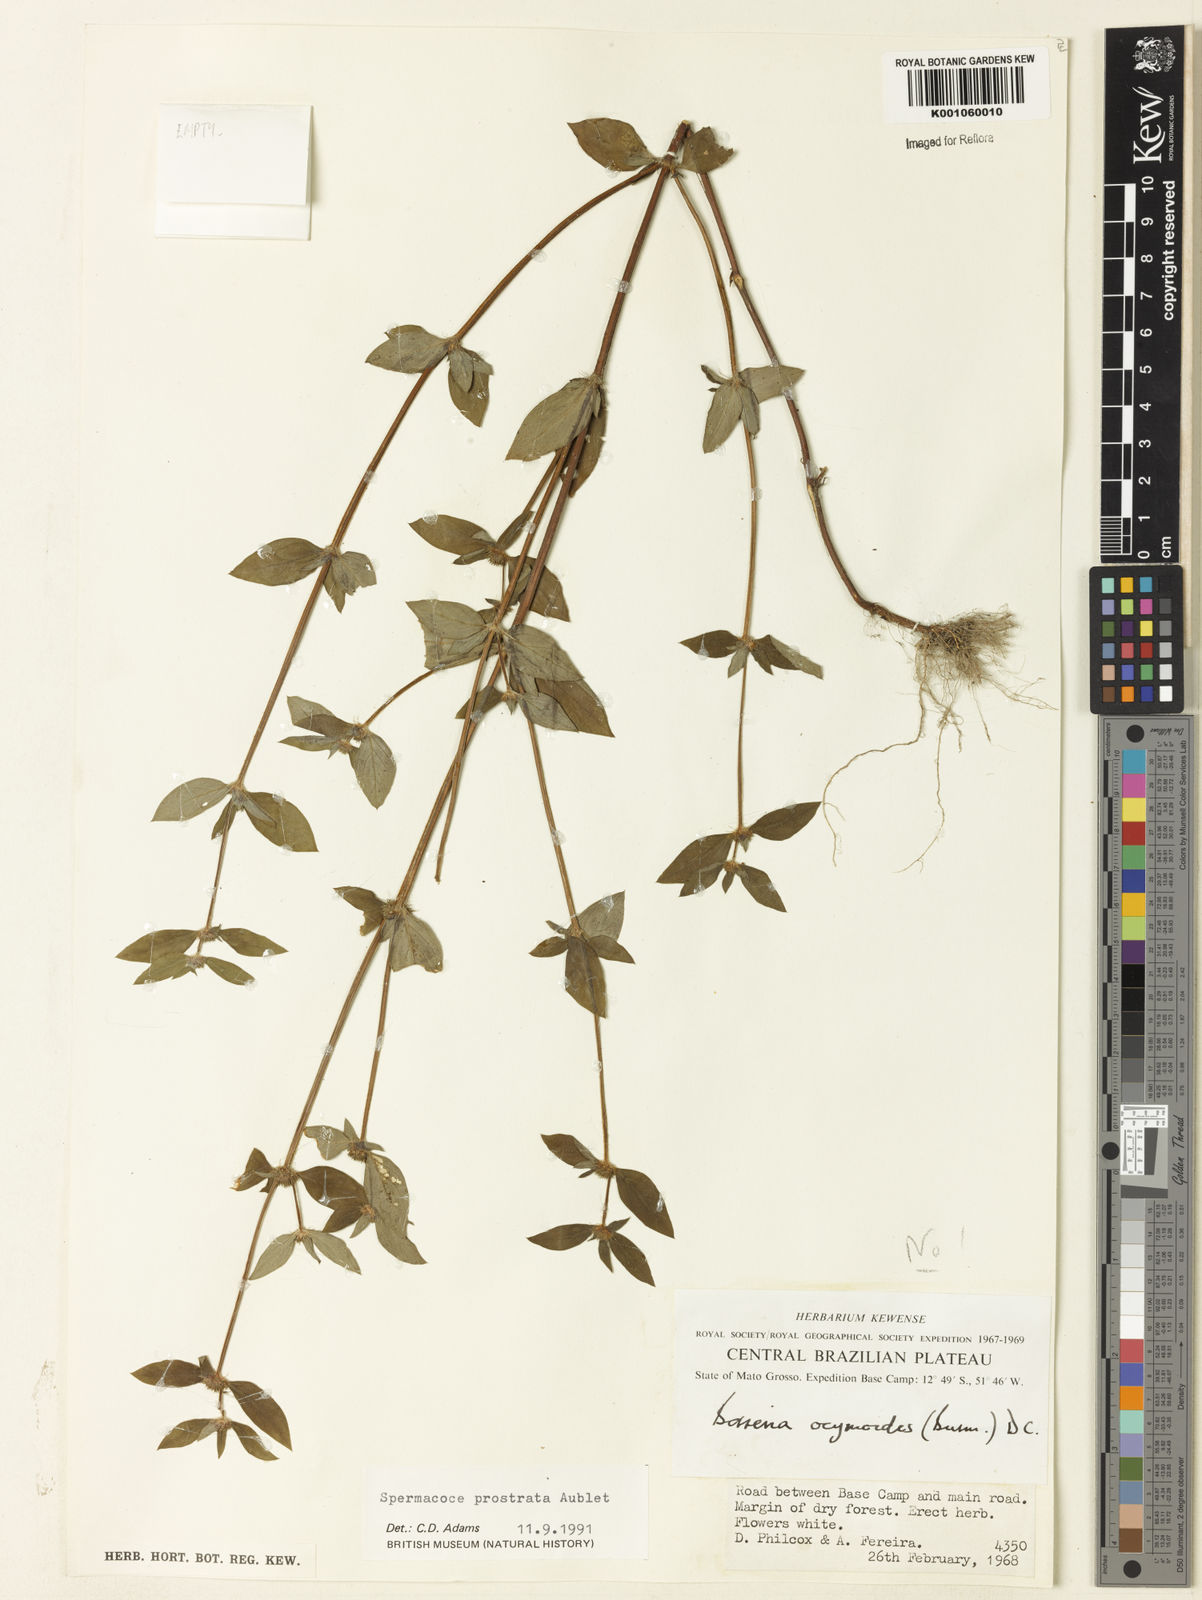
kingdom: Plantae
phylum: Tracheophyta
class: Magnoliopsida
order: Gentianales
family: Rubiaceae
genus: Spermacoce
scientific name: Spermacoce
